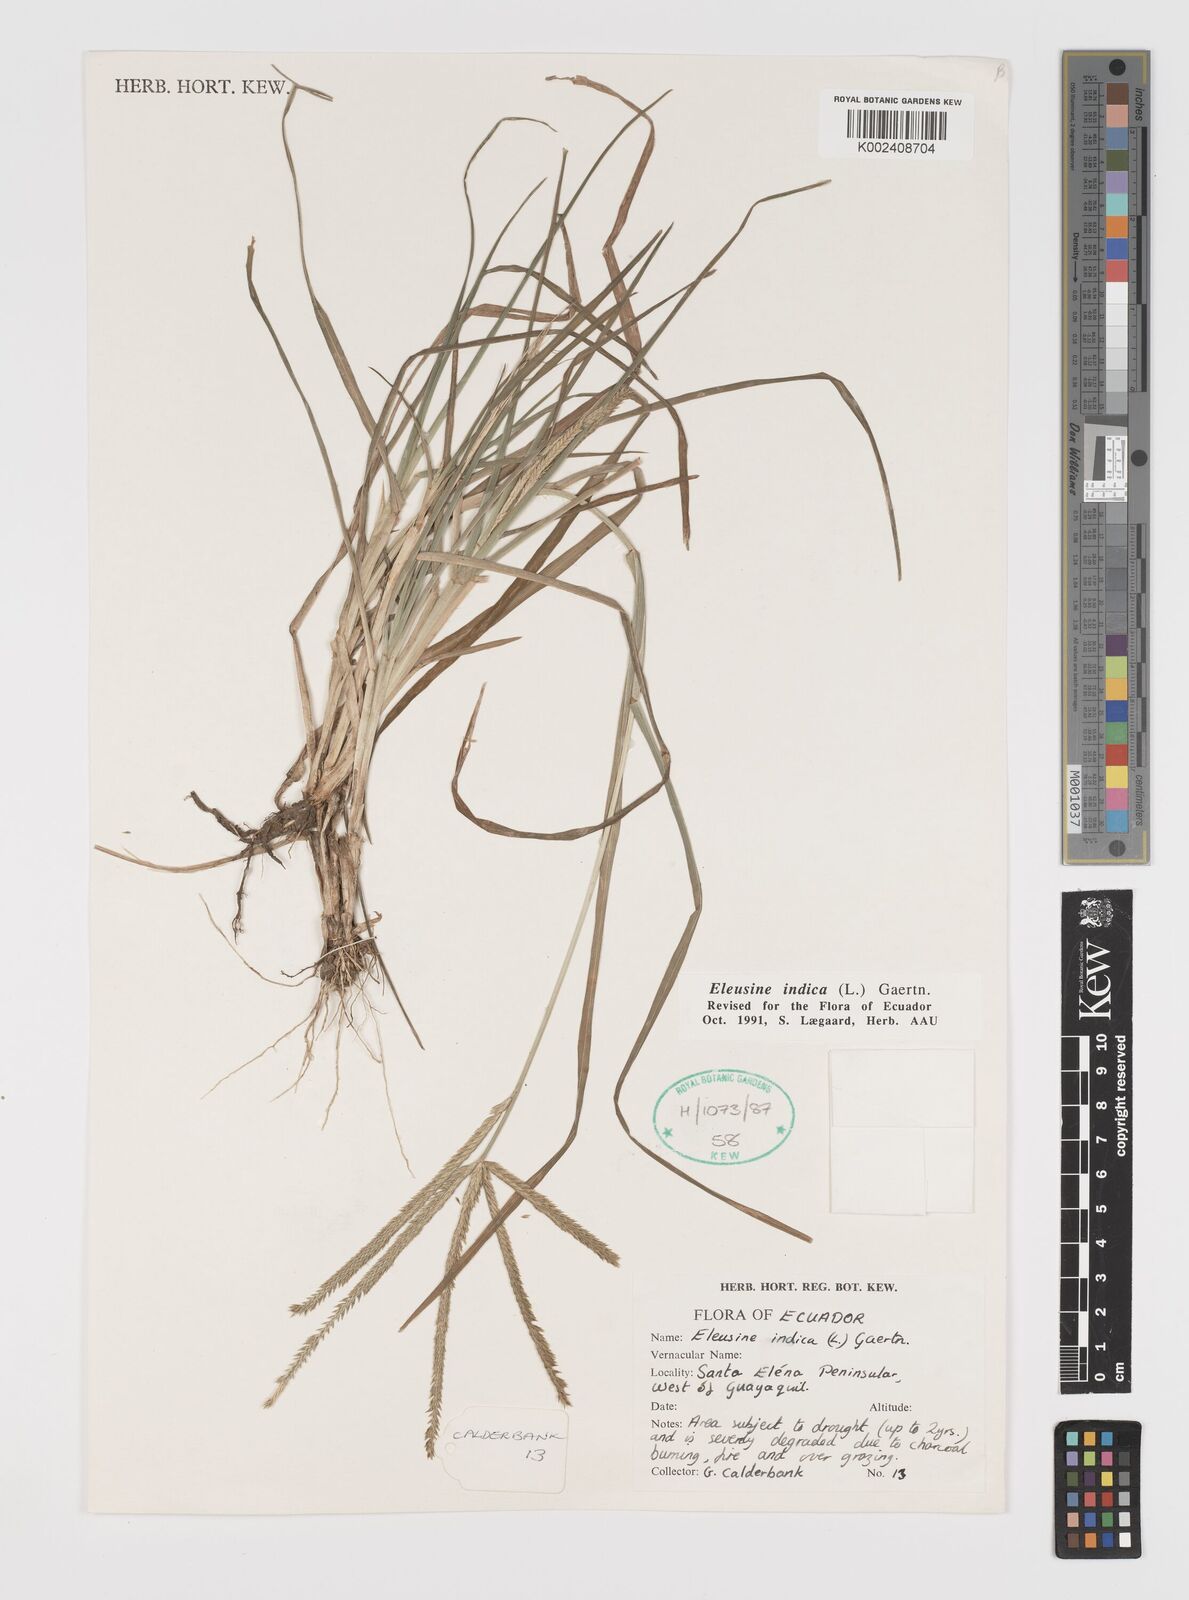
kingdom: Plantae
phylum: Tracheophyta
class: Liliopsida
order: Poales
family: Poaceae
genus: Eleusine
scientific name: Eleusine indica
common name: Yard-grass
